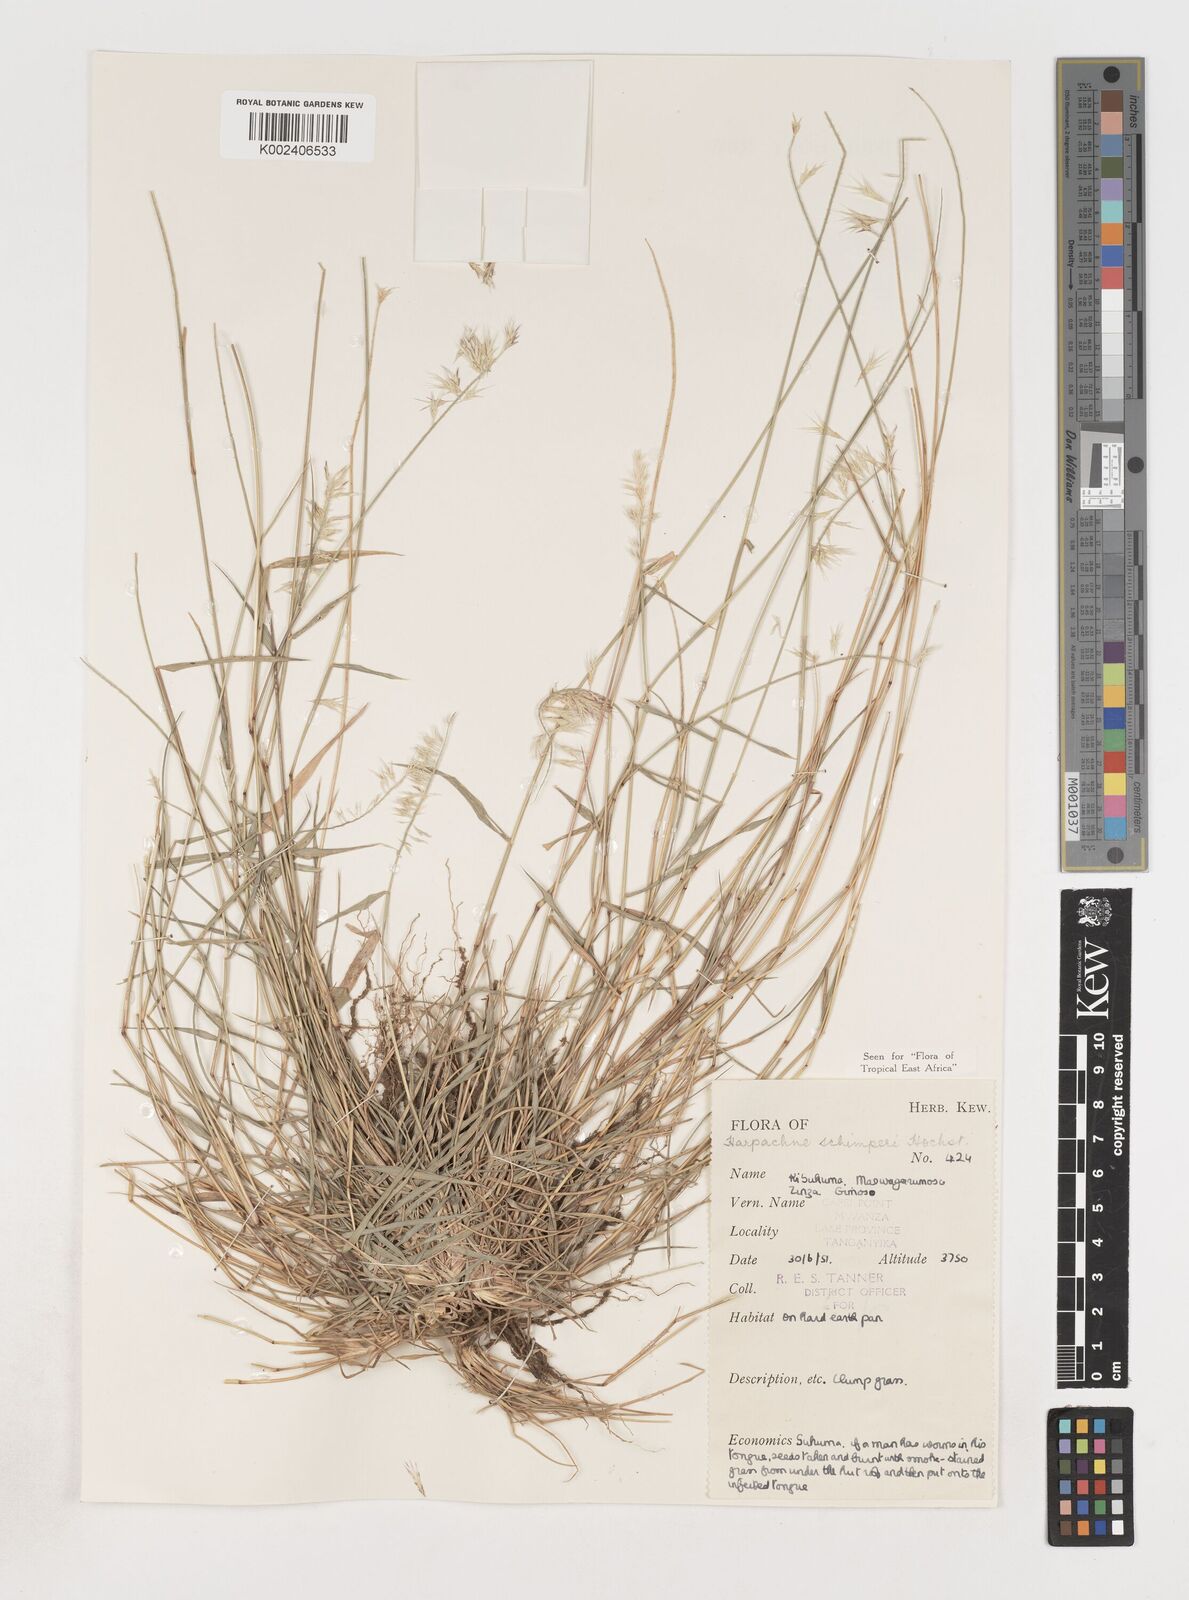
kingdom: Plantae
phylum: Tracheophyta
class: Liliopsida
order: Poales
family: Poaceae
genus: Harpachne
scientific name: Harpachne schimperi
